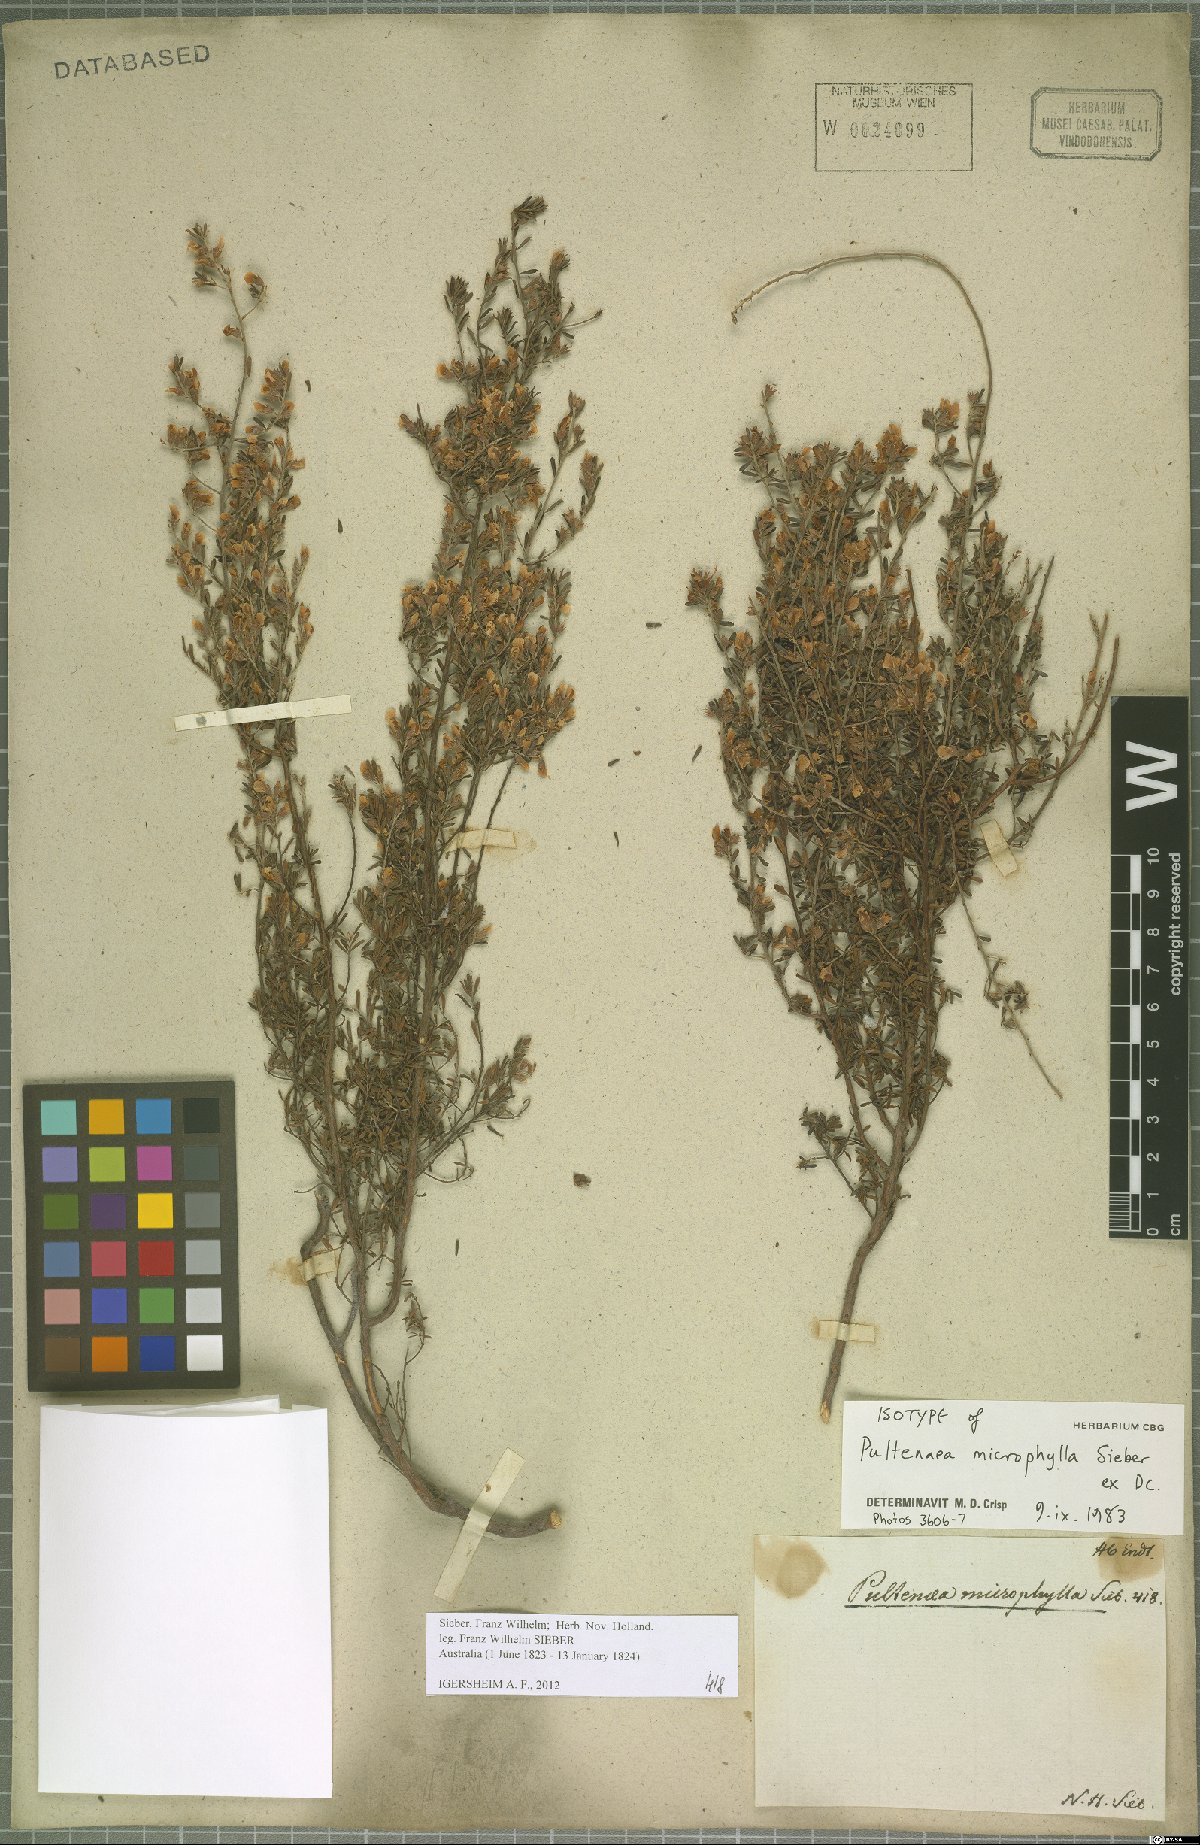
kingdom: Plantae
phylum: Tracheophyta
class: Magnoliopsida
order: Fabales
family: Fabaceae
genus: Pultenaea
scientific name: Pultenaea microphylla
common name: Spreading bush-pea
